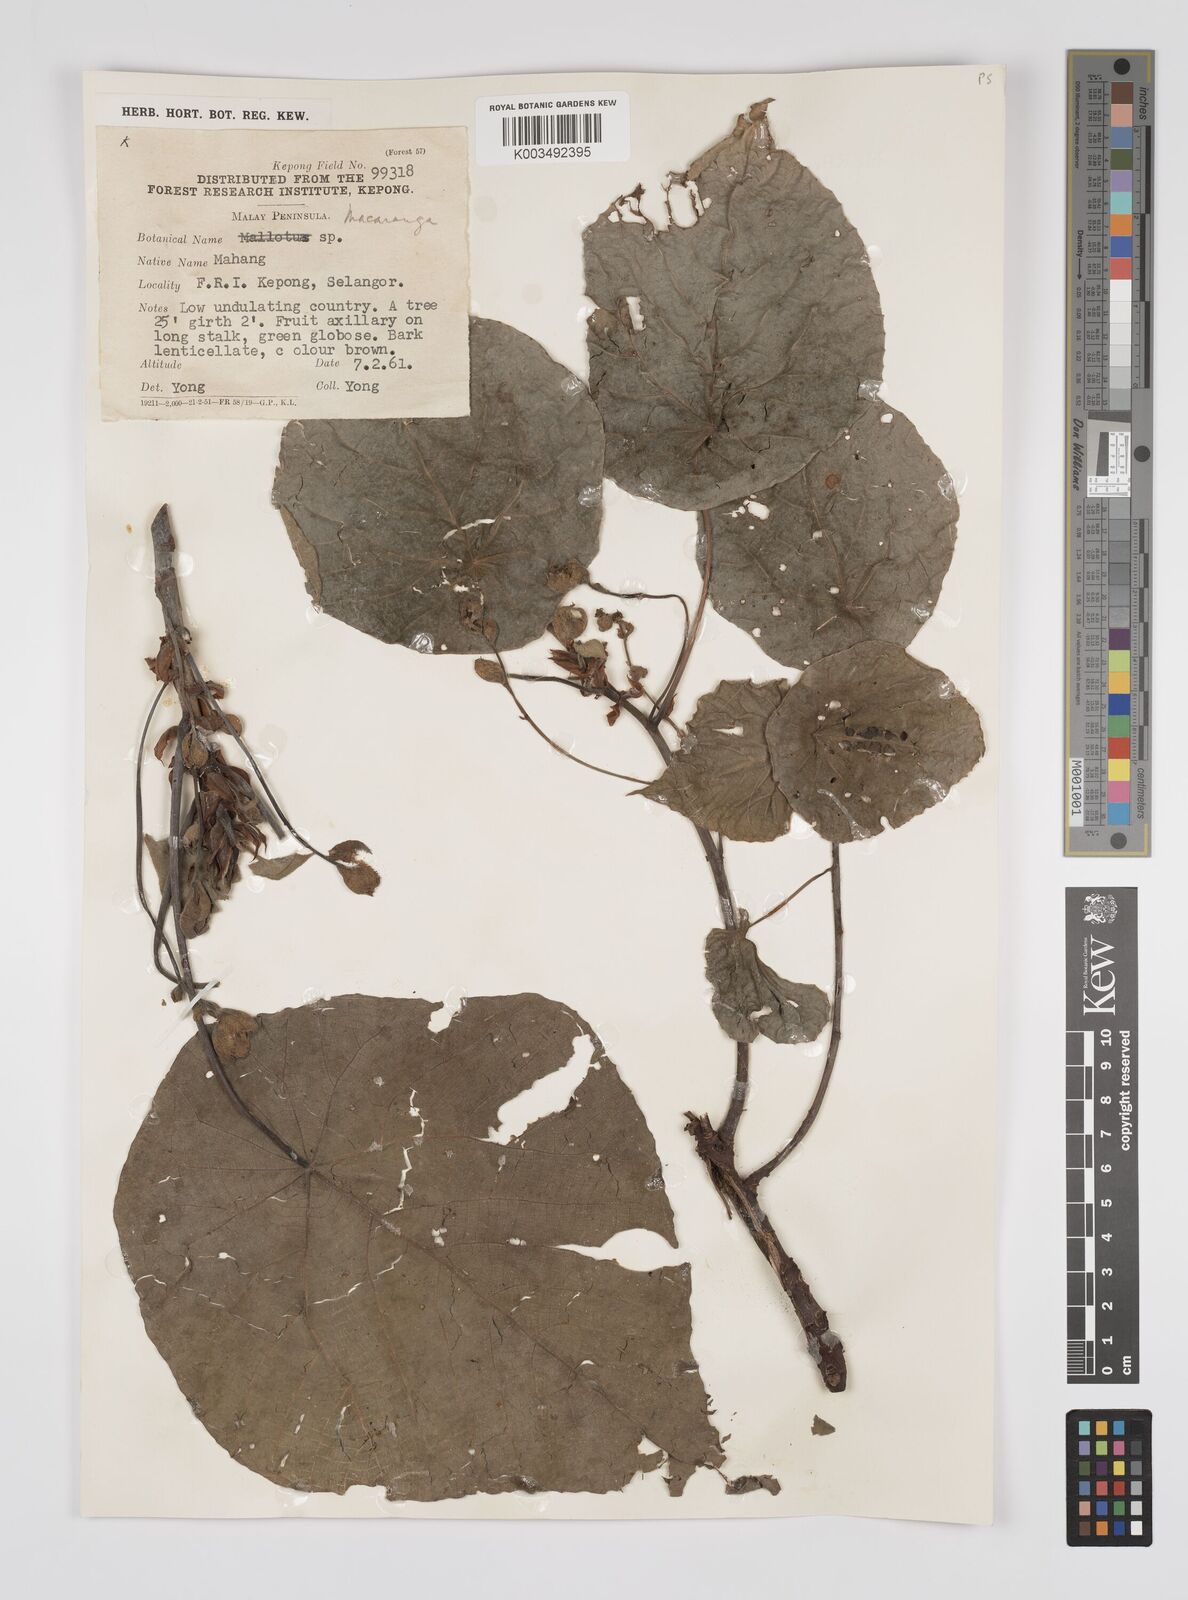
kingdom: Plantae
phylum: Tracheophyta
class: Magnoliopsida
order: Malpighiales
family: Euphorbiaceae
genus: Macaranga
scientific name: Macaranga tanarius
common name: Parasol leaf tree
